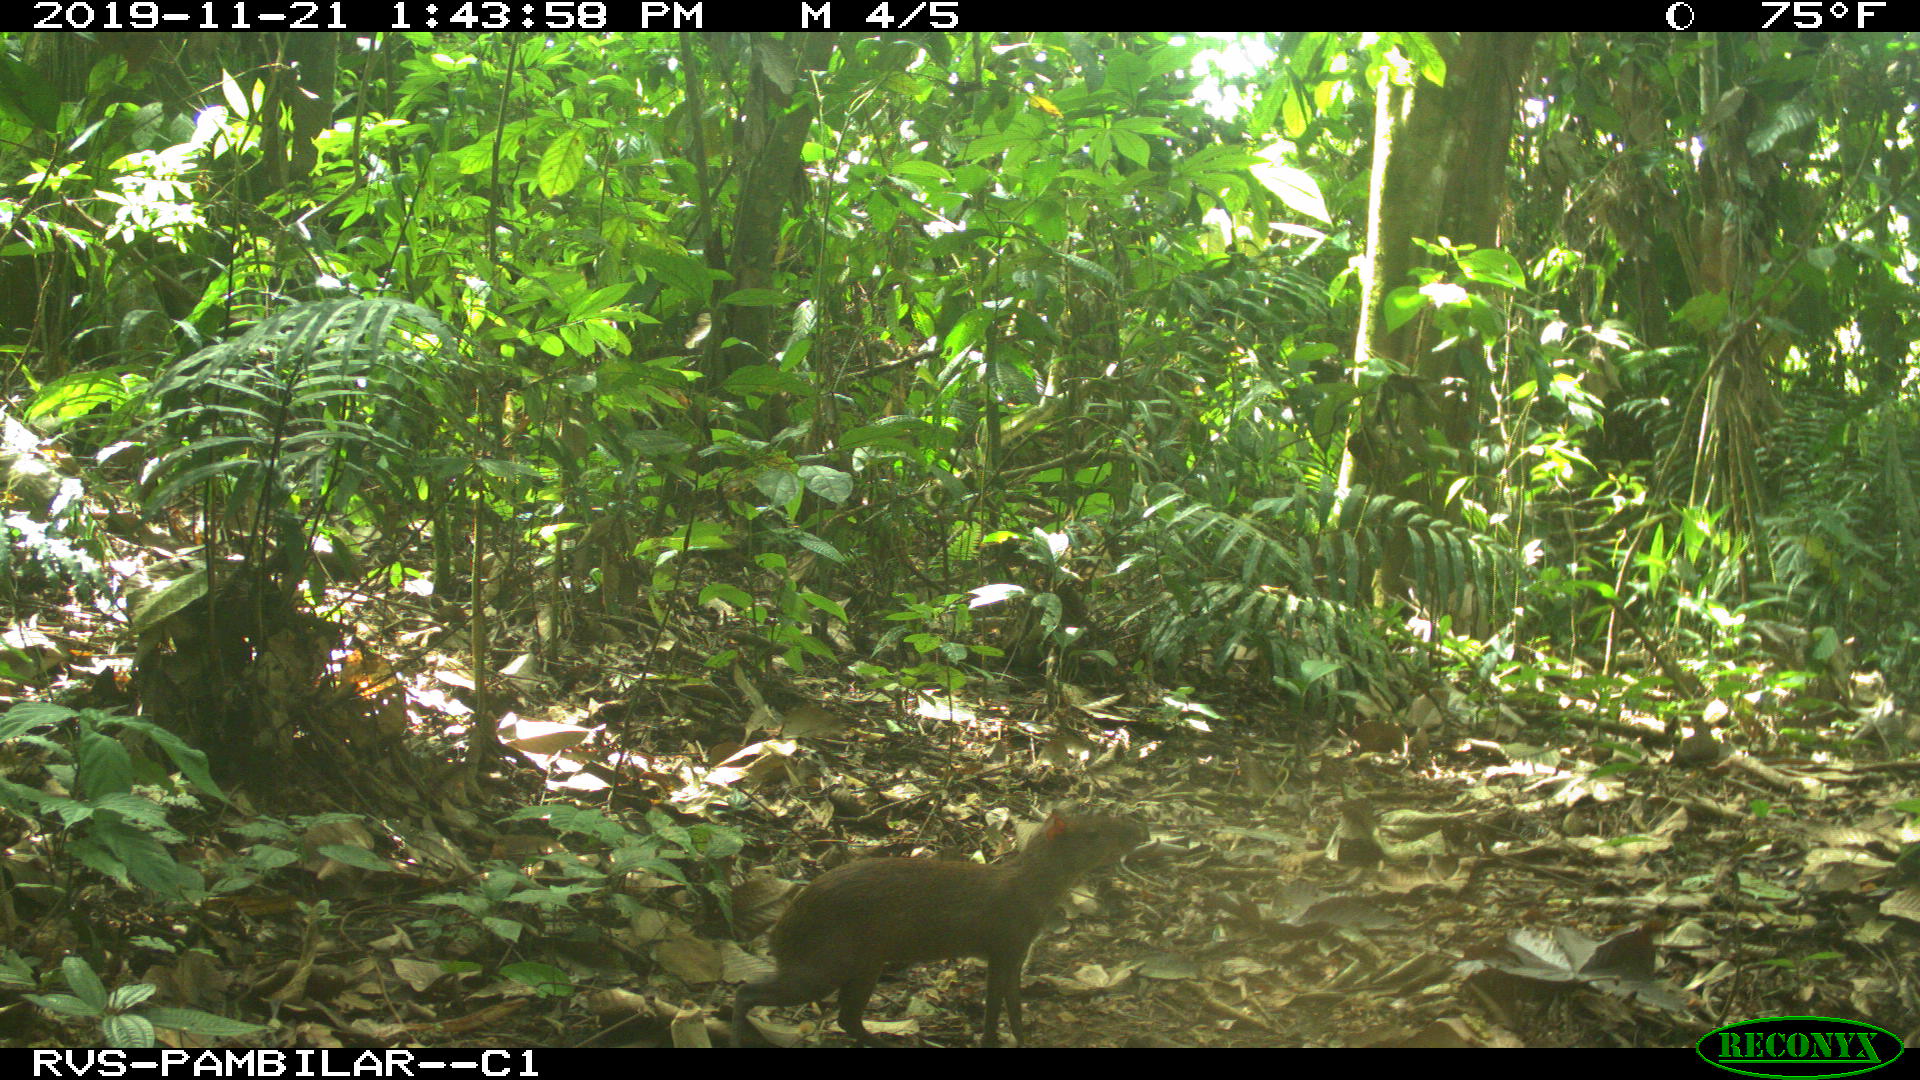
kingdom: Animalia
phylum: Chordata
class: Mammalia
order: Rodentia
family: Dasyproctidae
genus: Dasyprocta
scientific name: Dasyprocta punctata
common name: Central american agouti
